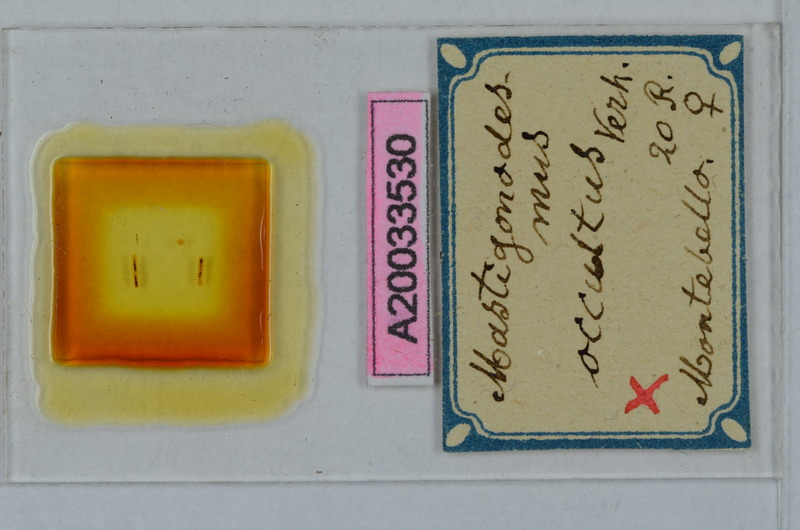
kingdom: Animalia
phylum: Arthropoda
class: Diplopoda
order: Polydesmida
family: Polydesmidae
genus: Mastigonodesmus
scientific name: Mastigonodesmus occultus
